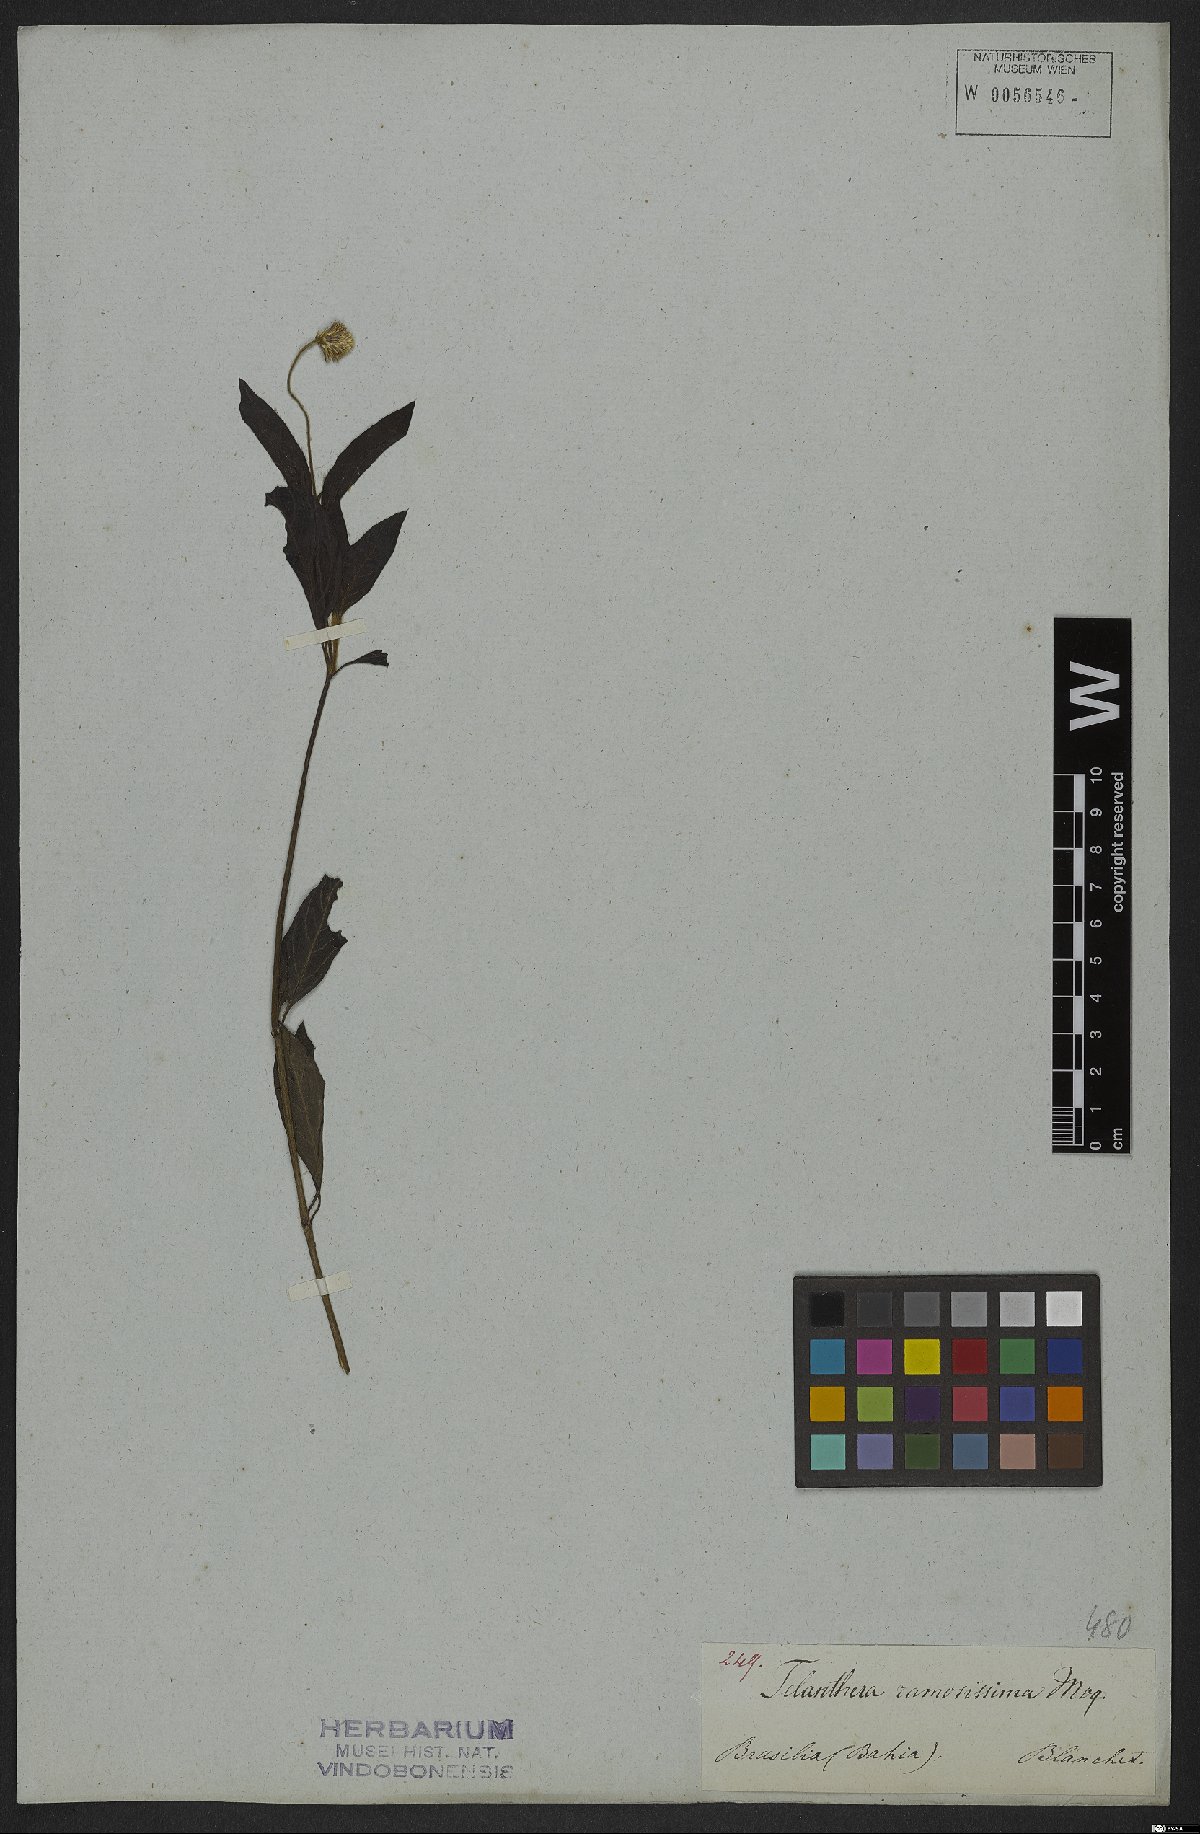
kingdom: Plantae
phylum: Tracheophyta
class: Magnoliopsida
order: Caryophyllales
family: Amaranthaceae
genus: Alternanthera
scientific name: Alternanthera brasiliana
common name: Brazilian joyweed
